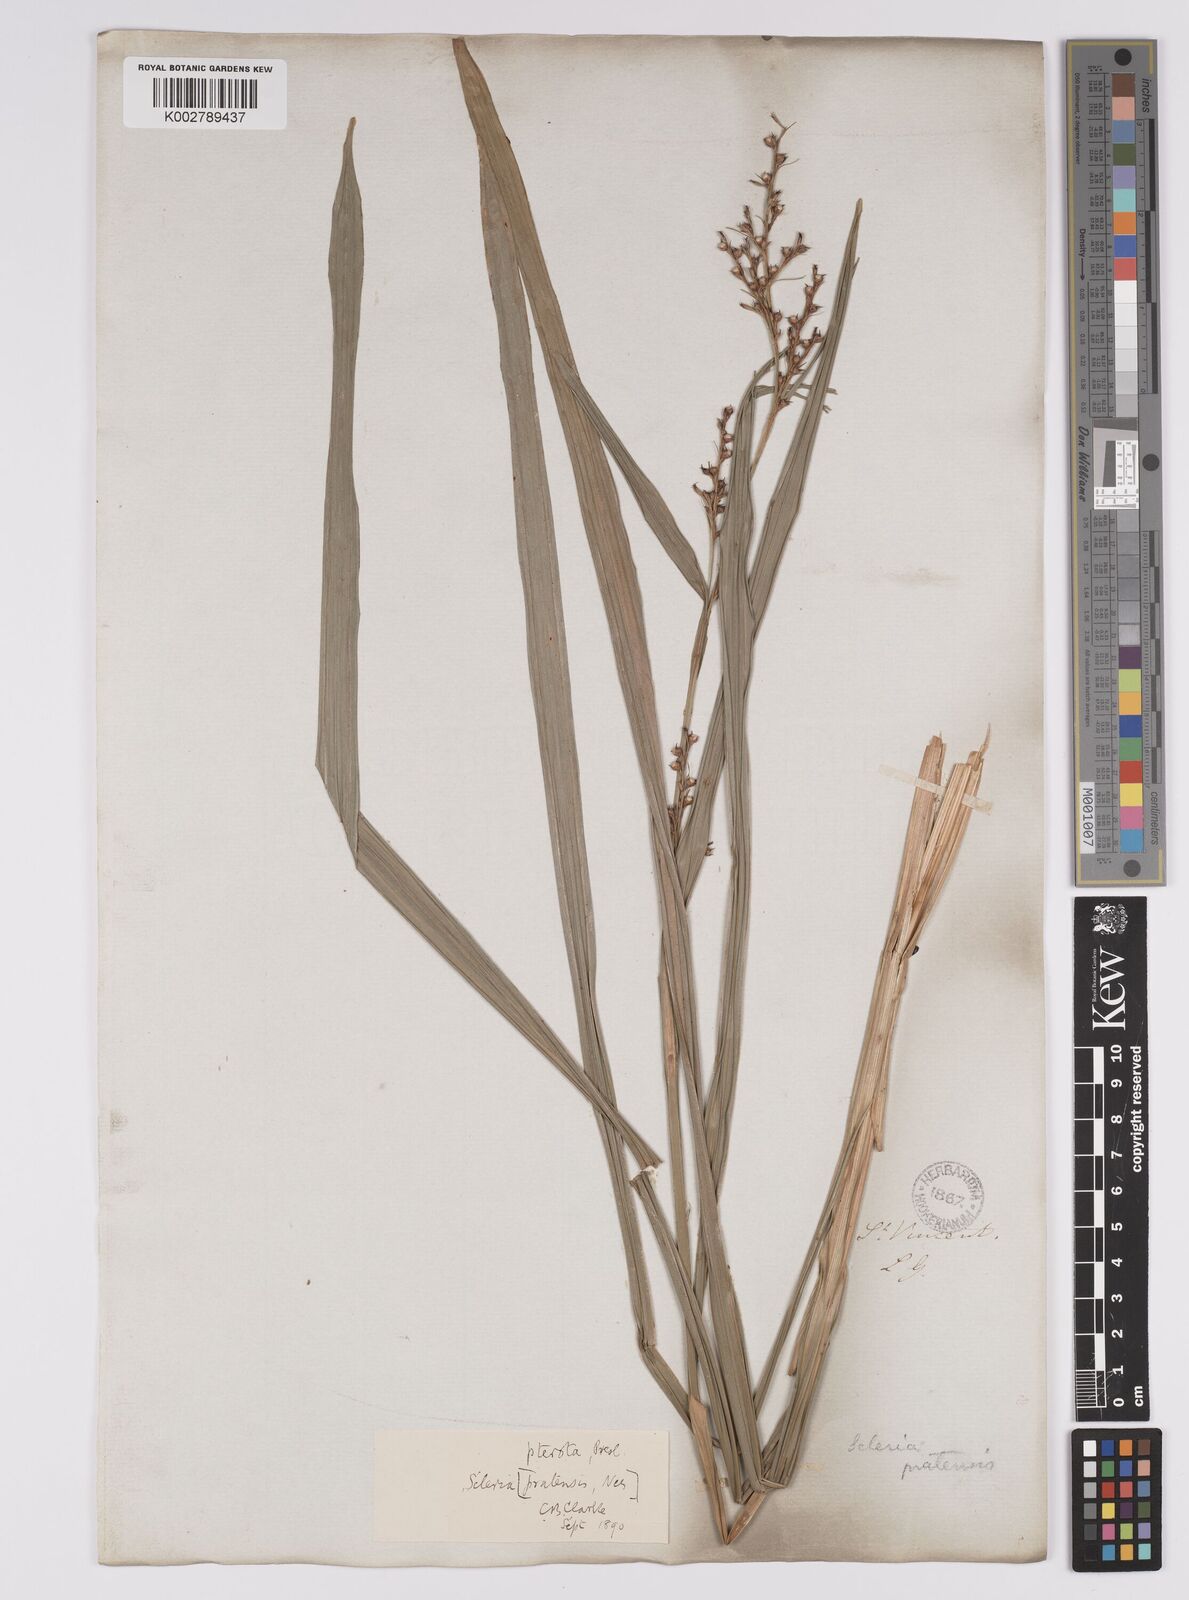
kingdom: Plantae
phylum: Tracheophyta
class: Liliopsida
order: Poales
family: Cyperaceae
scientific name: Cyperaceae
